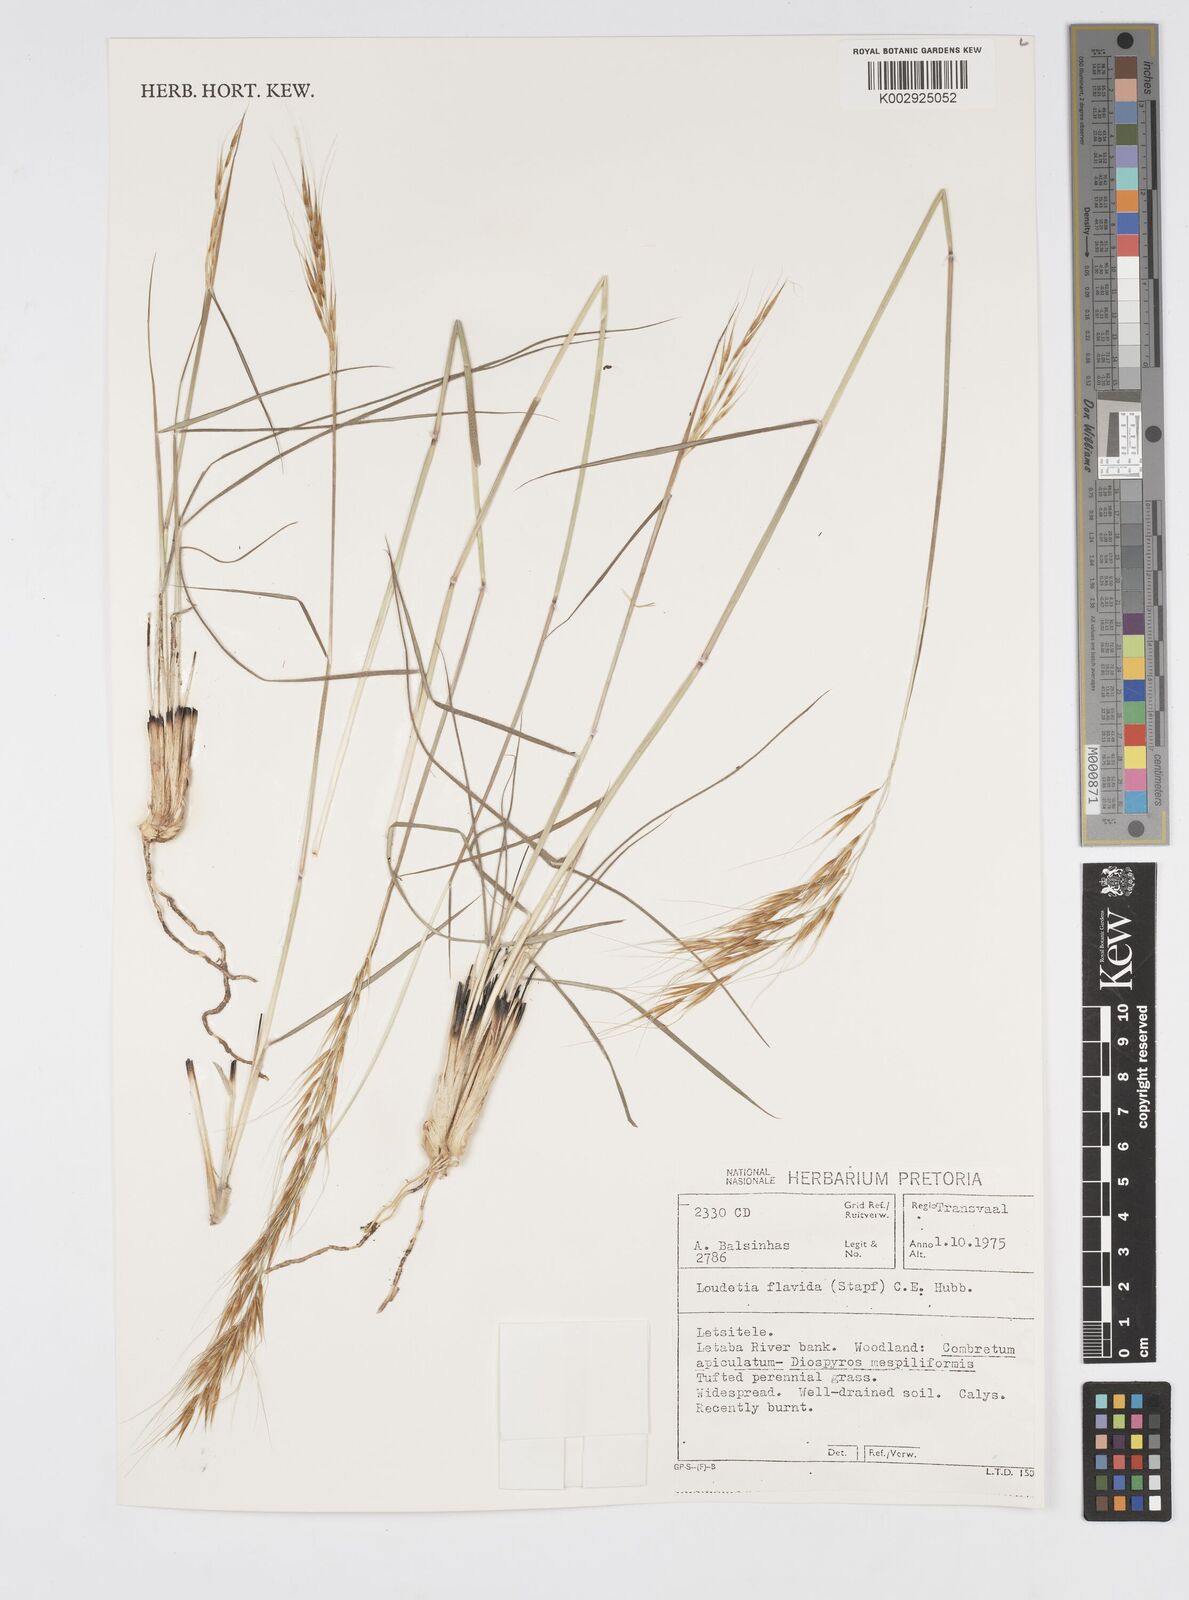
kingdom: Plantae
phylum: Tracheophyta
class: Liliopsida
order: Poales
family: Poaceae
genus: Loudetia
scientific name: Loudetia flavida
